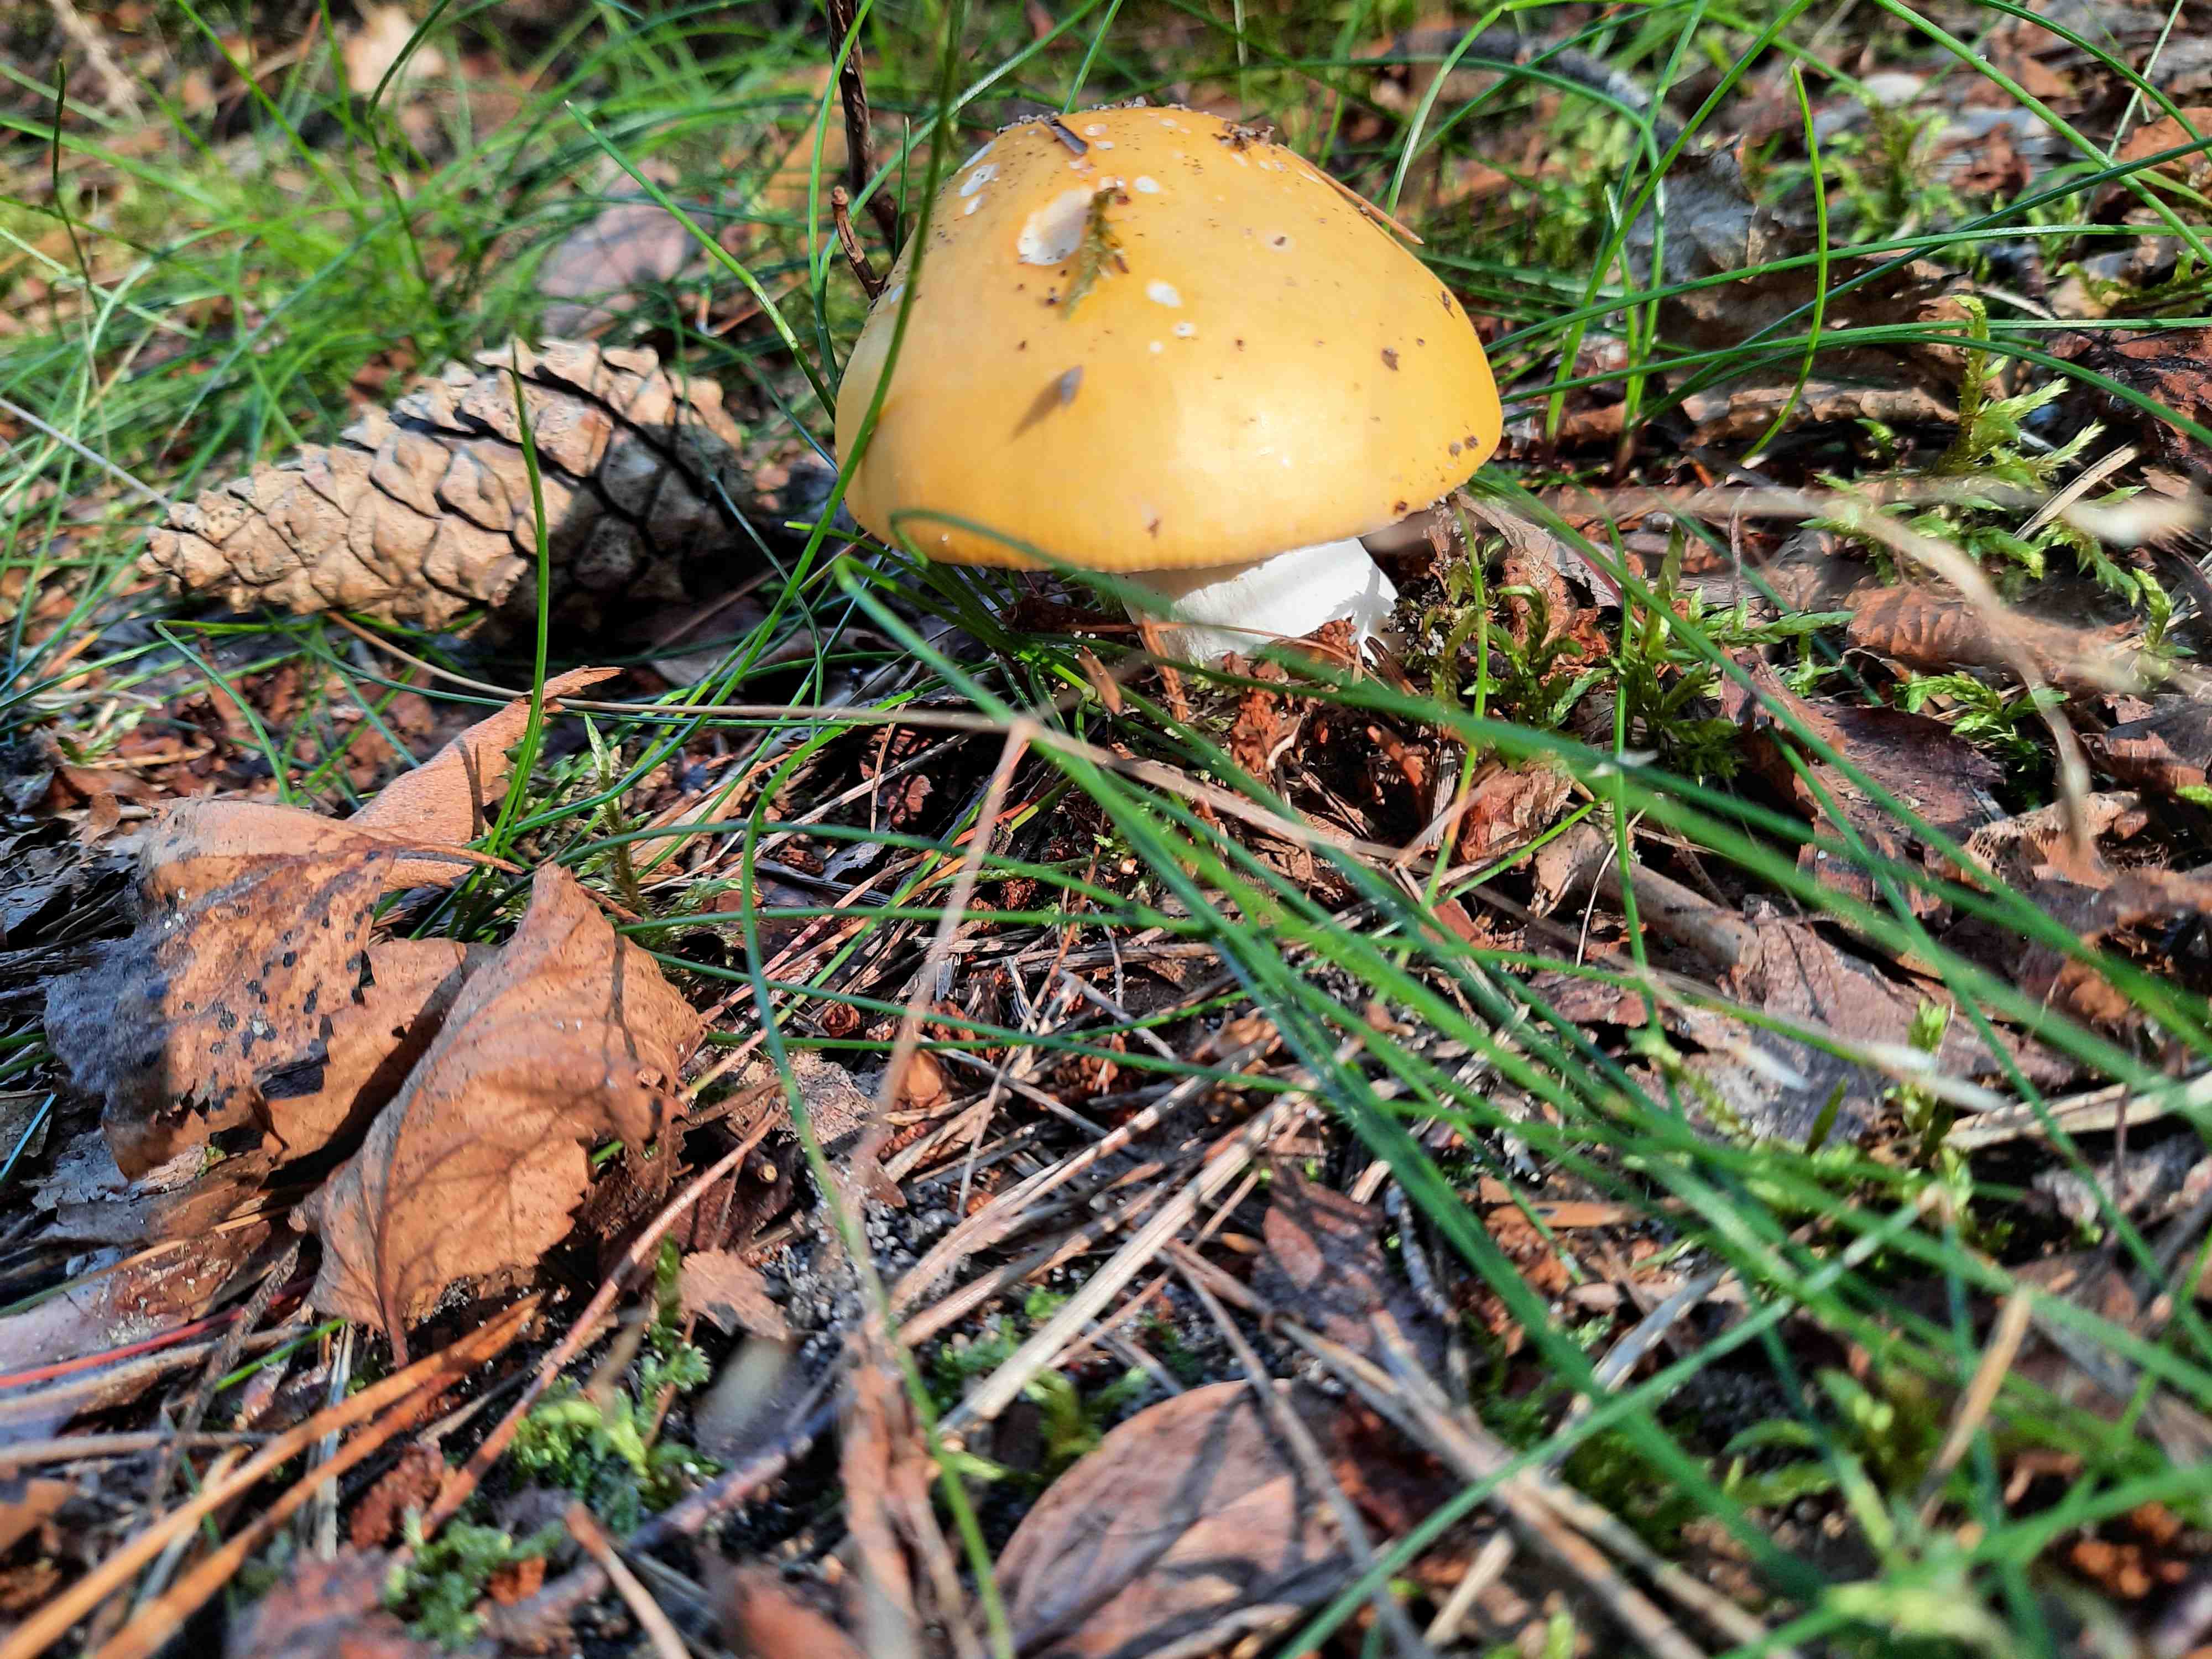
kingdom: Fungi
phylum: Basidiomycota
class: Agaricomycetes
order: Russulales
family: Russulaceae
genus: Russula
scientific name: Russula claroflava
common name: birke-skørhat
